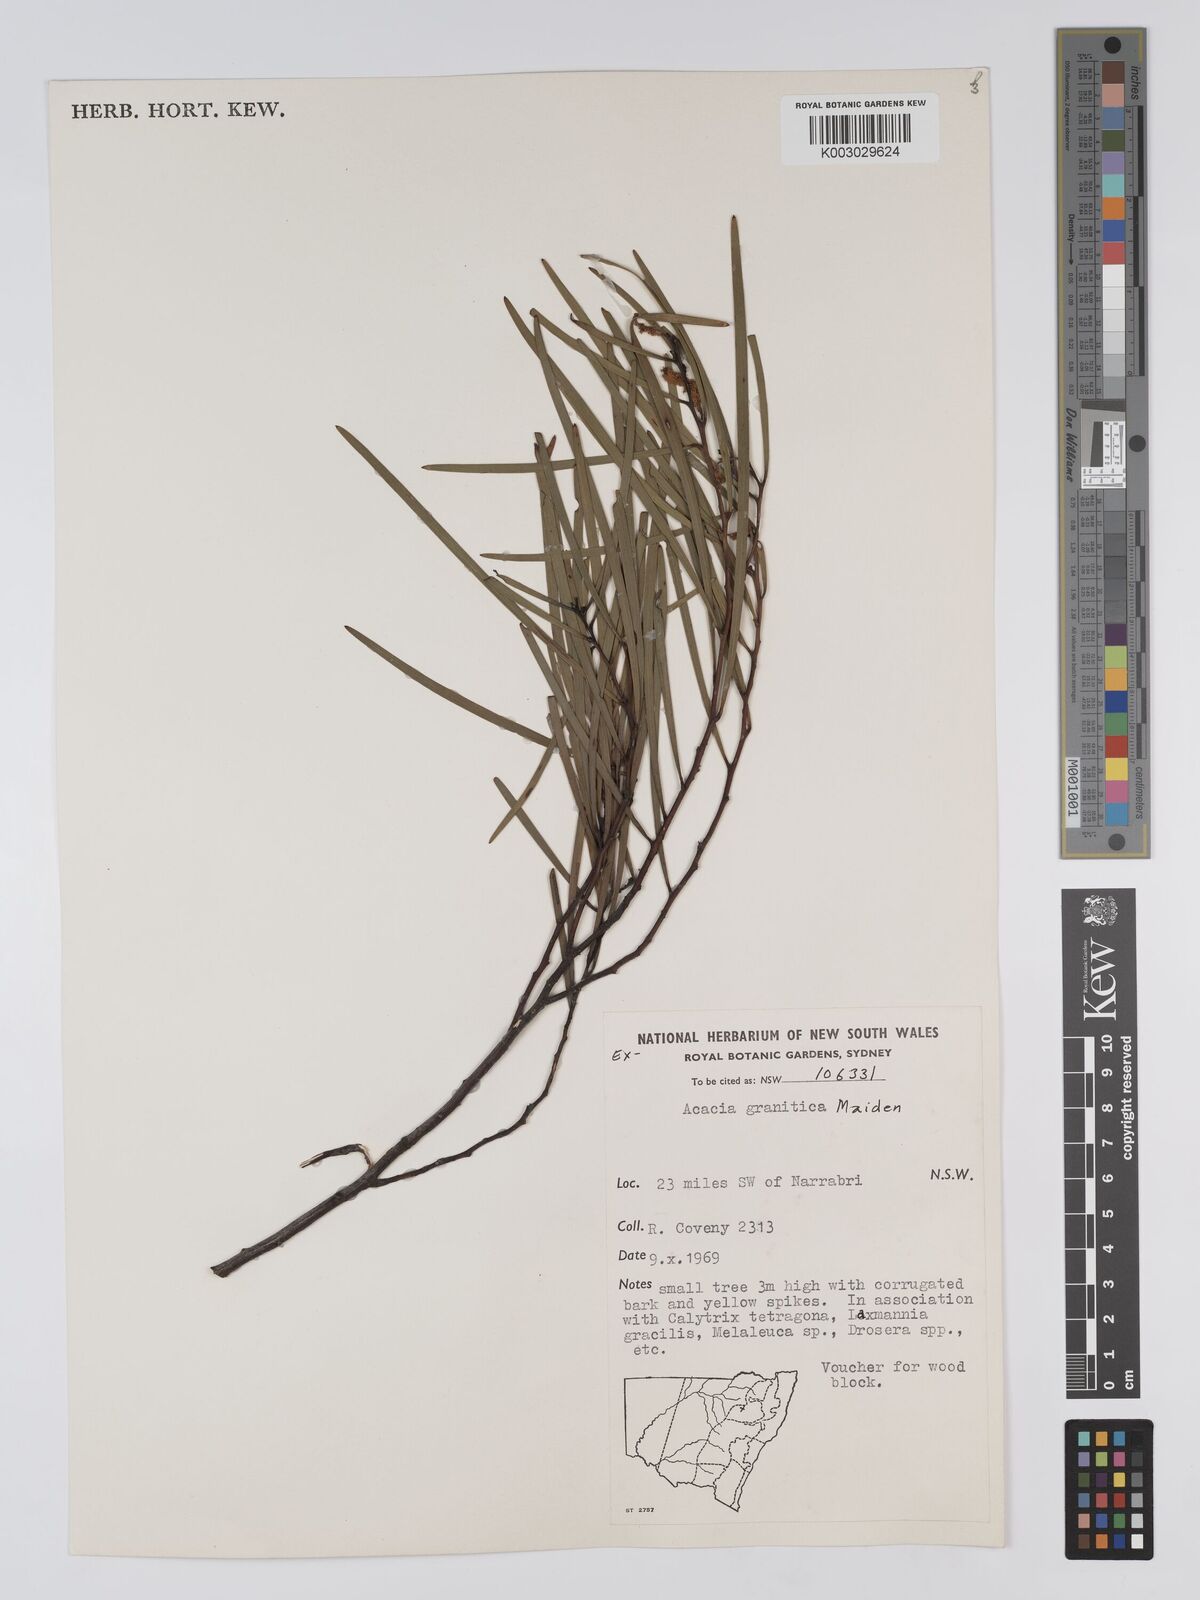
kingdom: Plantae
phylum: Tracheophyta
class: Magnoliopsida
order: Fabales
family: Fabaceae
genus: Acacia
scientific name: Acacia granitica
